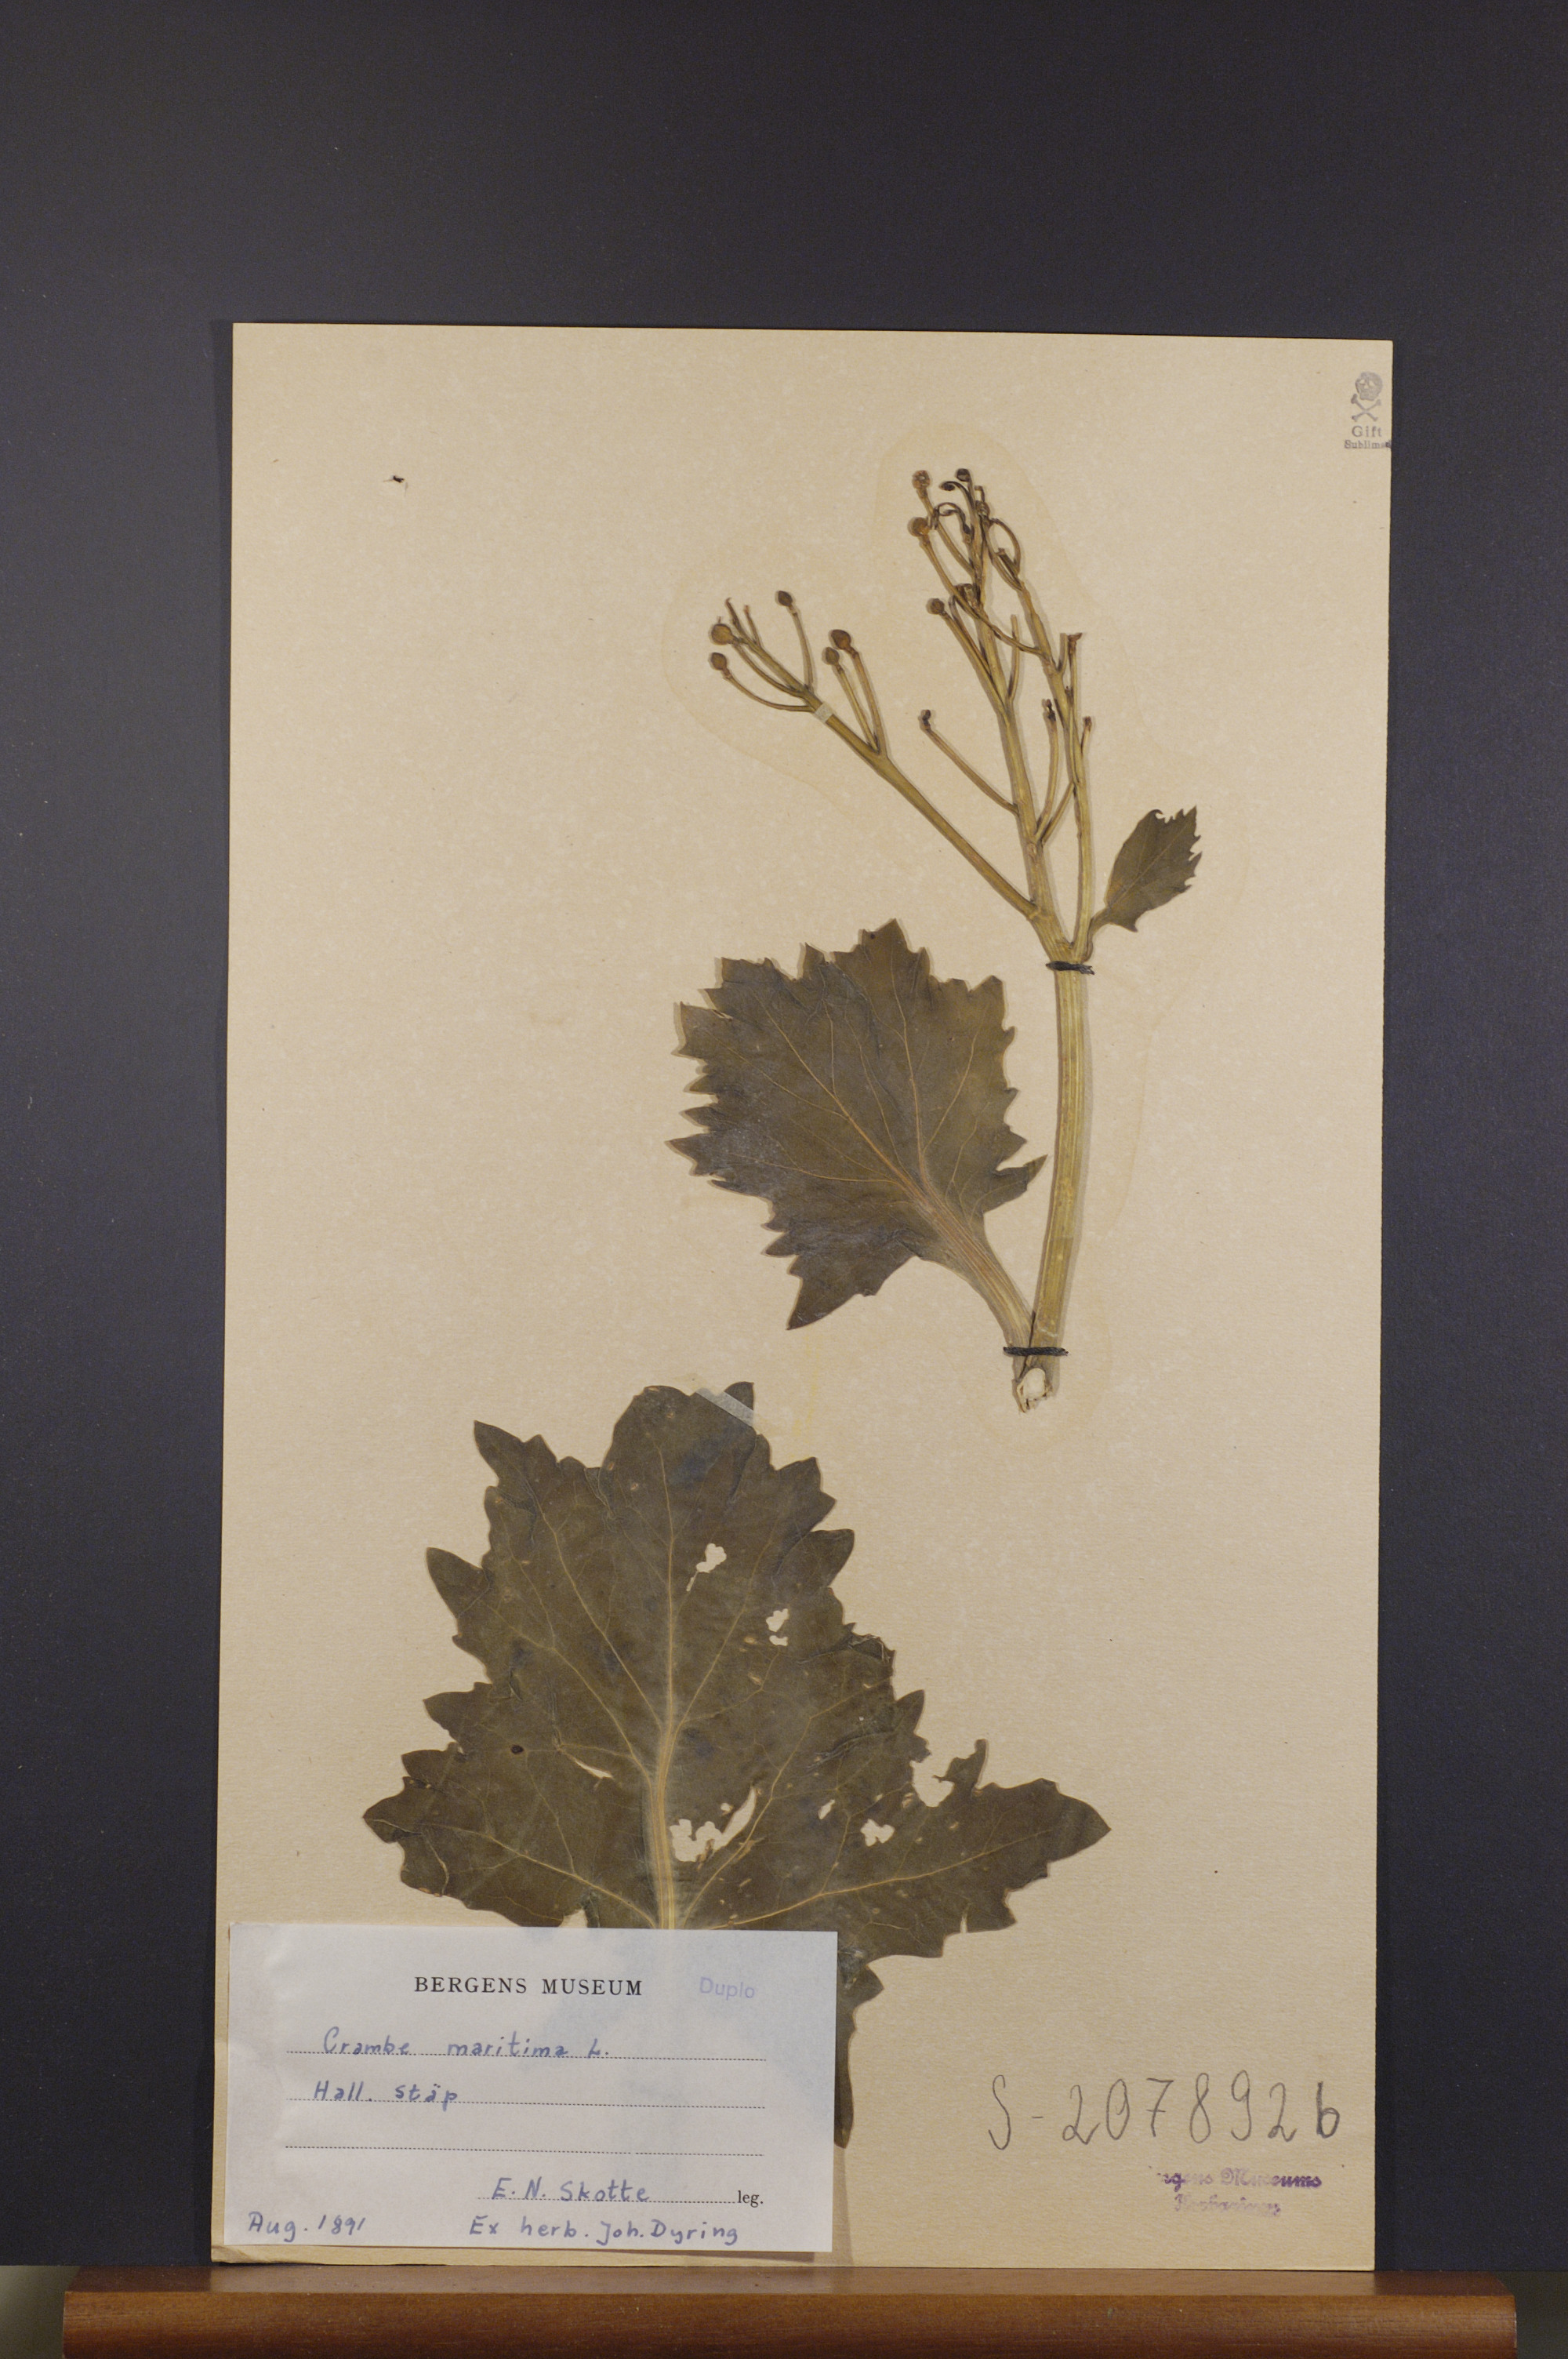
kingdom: Plantae
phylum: Tracheophyta
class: Magnoliopsida
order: Brassicales
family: Brassicaceae
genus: Crambe
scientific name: Crambe maritima
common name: Sea-kale
